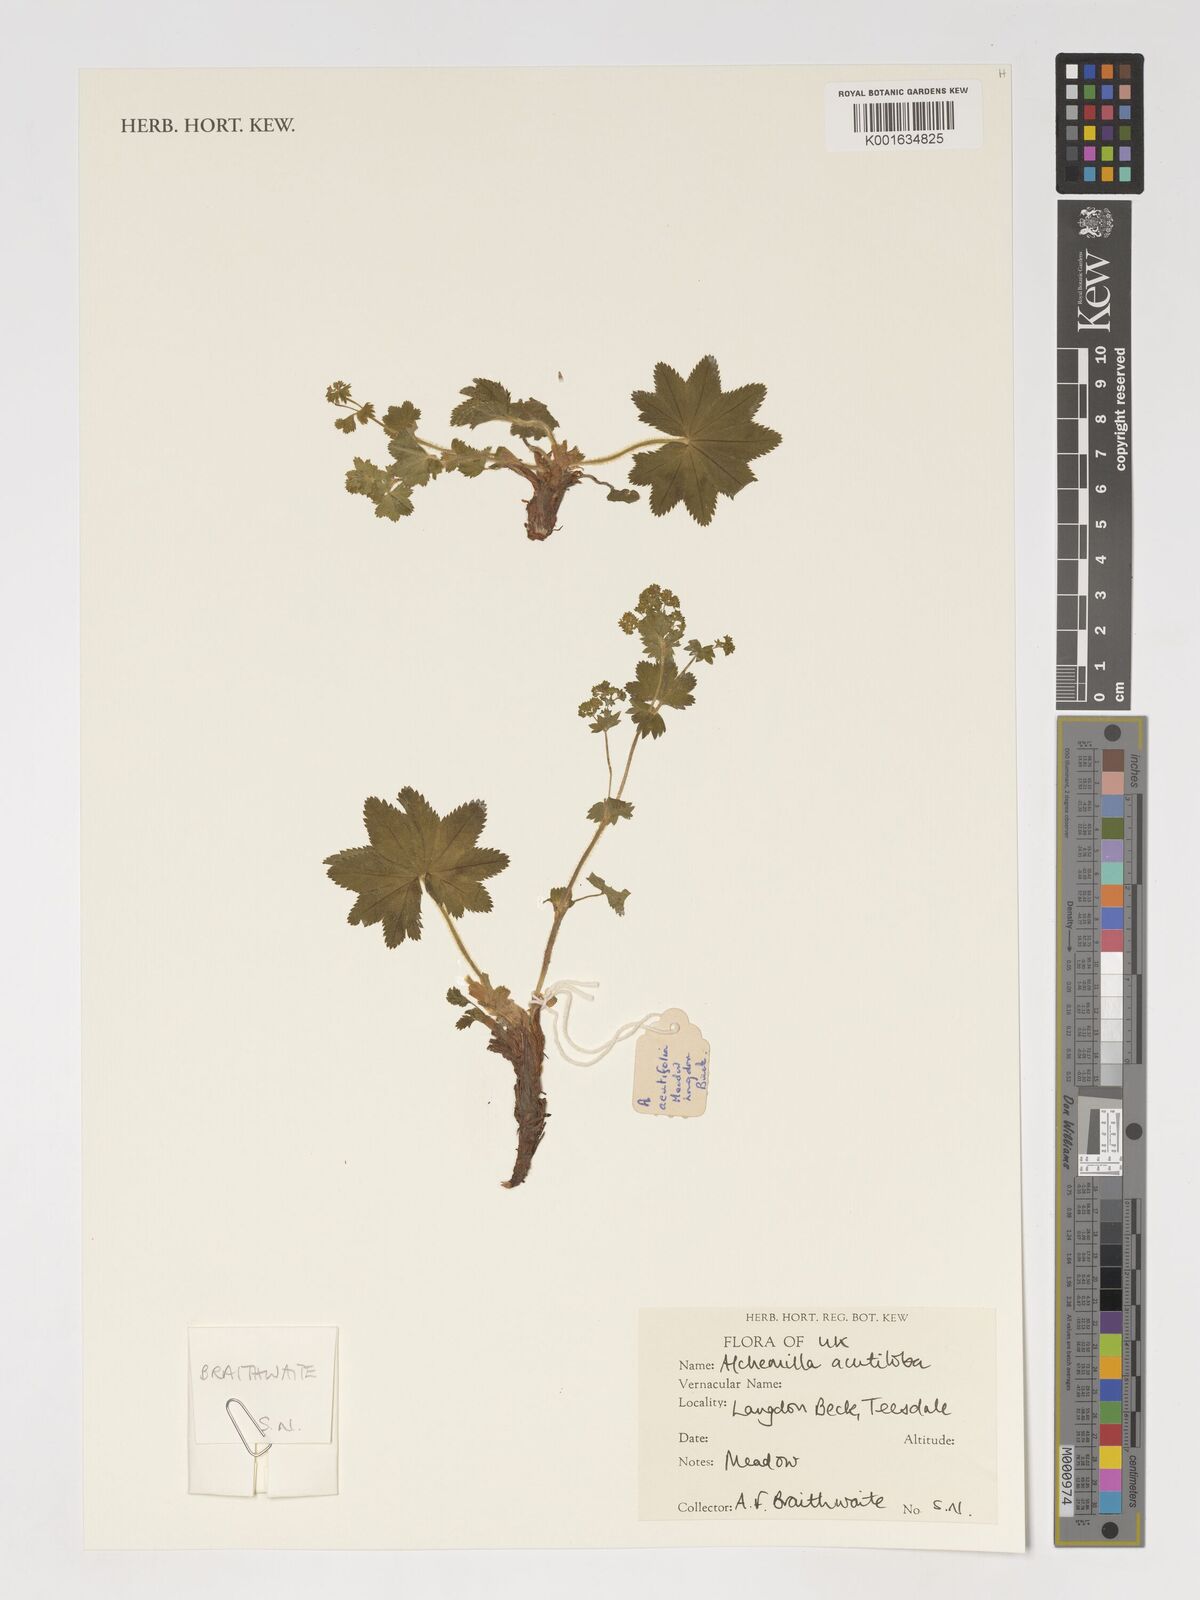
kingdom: Plantae
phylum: Tracheophyta
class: Magnoliopsida
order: Rosales
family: Rosaceae
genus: Alchemilla
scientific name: Alchemilla mollis
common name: Lady's-mantle
